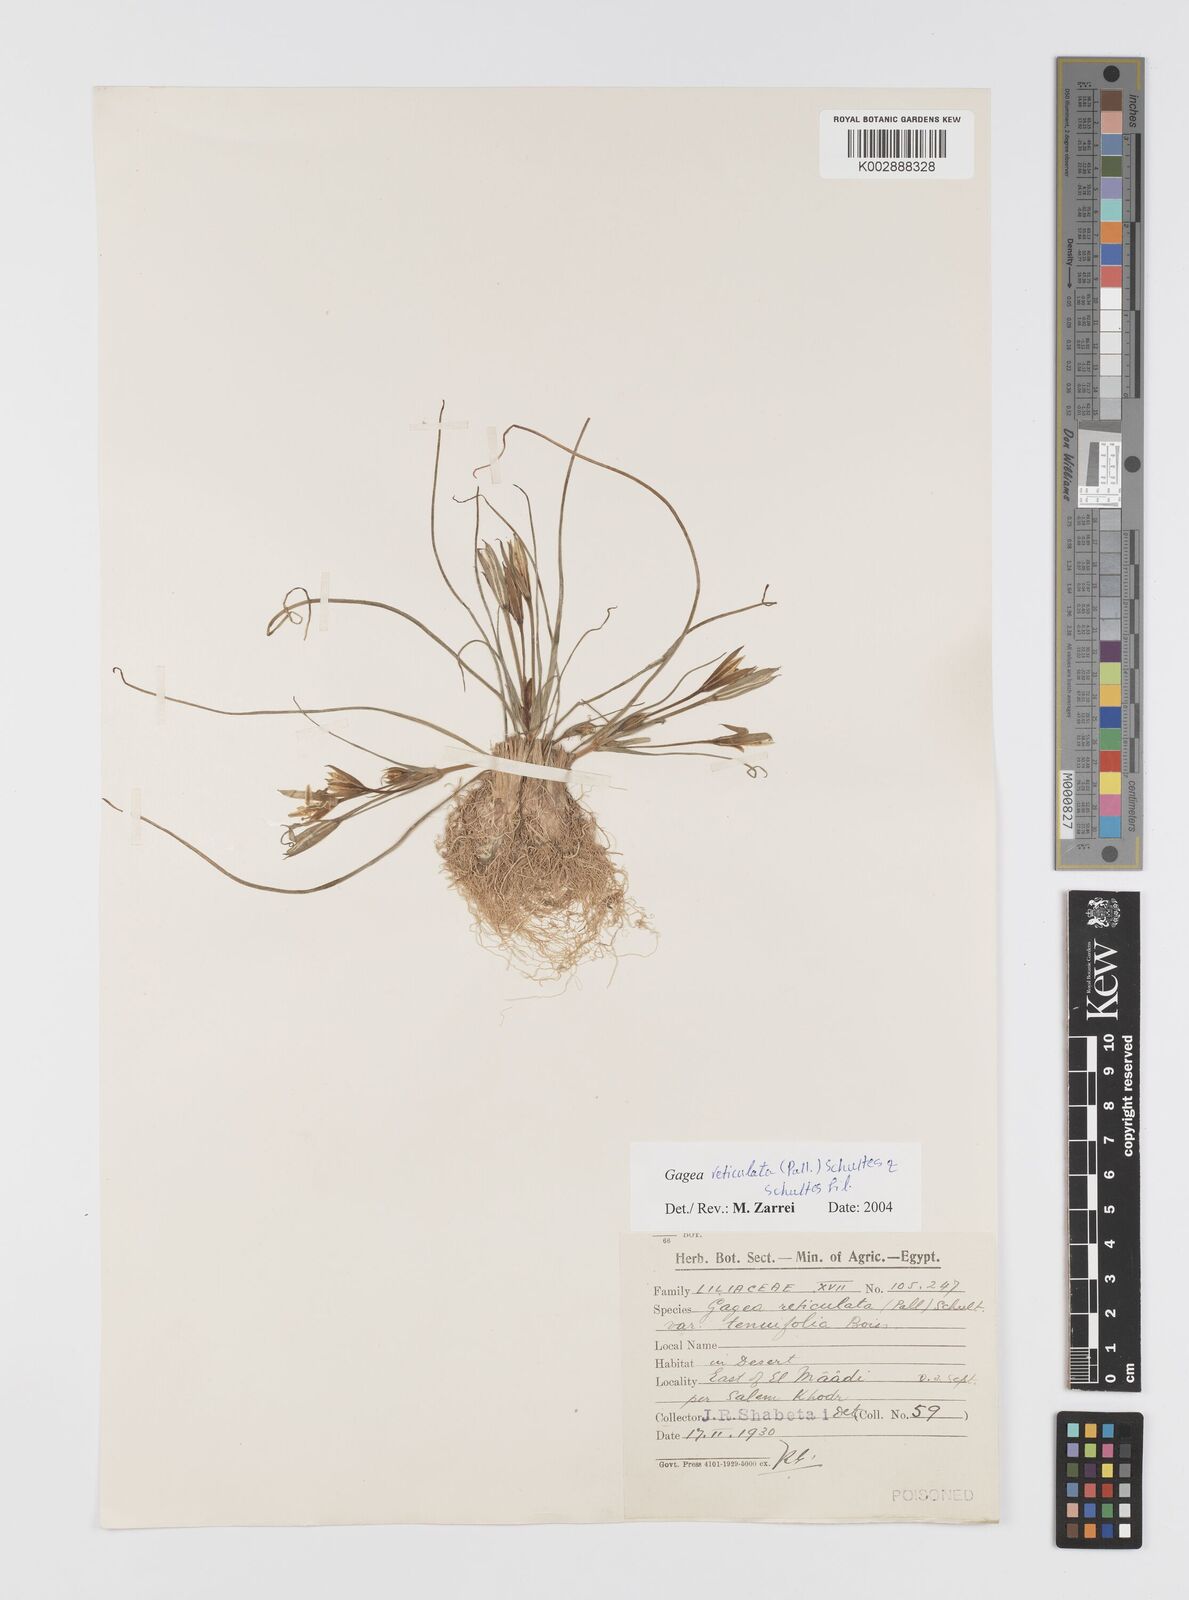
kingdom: Plantae
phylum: Tracheophyta
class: Liliopsida
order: Liliales
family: Liliaceae
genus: Gagea
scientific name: Gagea reticulata
